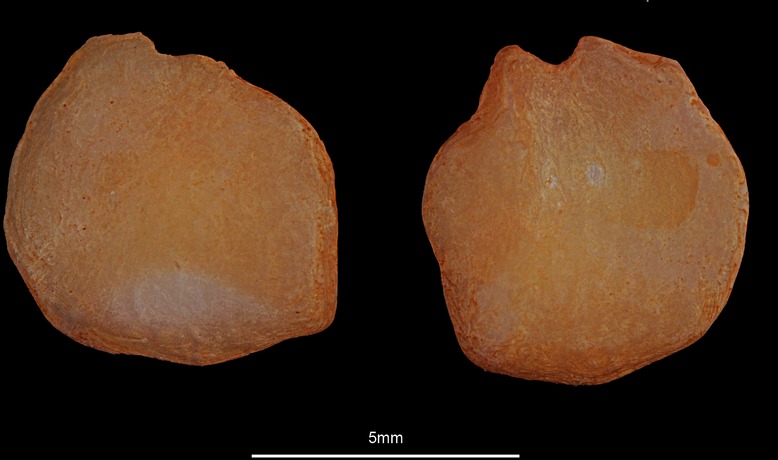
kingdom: Animalia
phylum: Chordata
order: Pleuronectiformes
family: Pleuronectidae
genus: Glyptocephalus
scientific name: Glyptocephalus cynoglossus
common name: Witch
